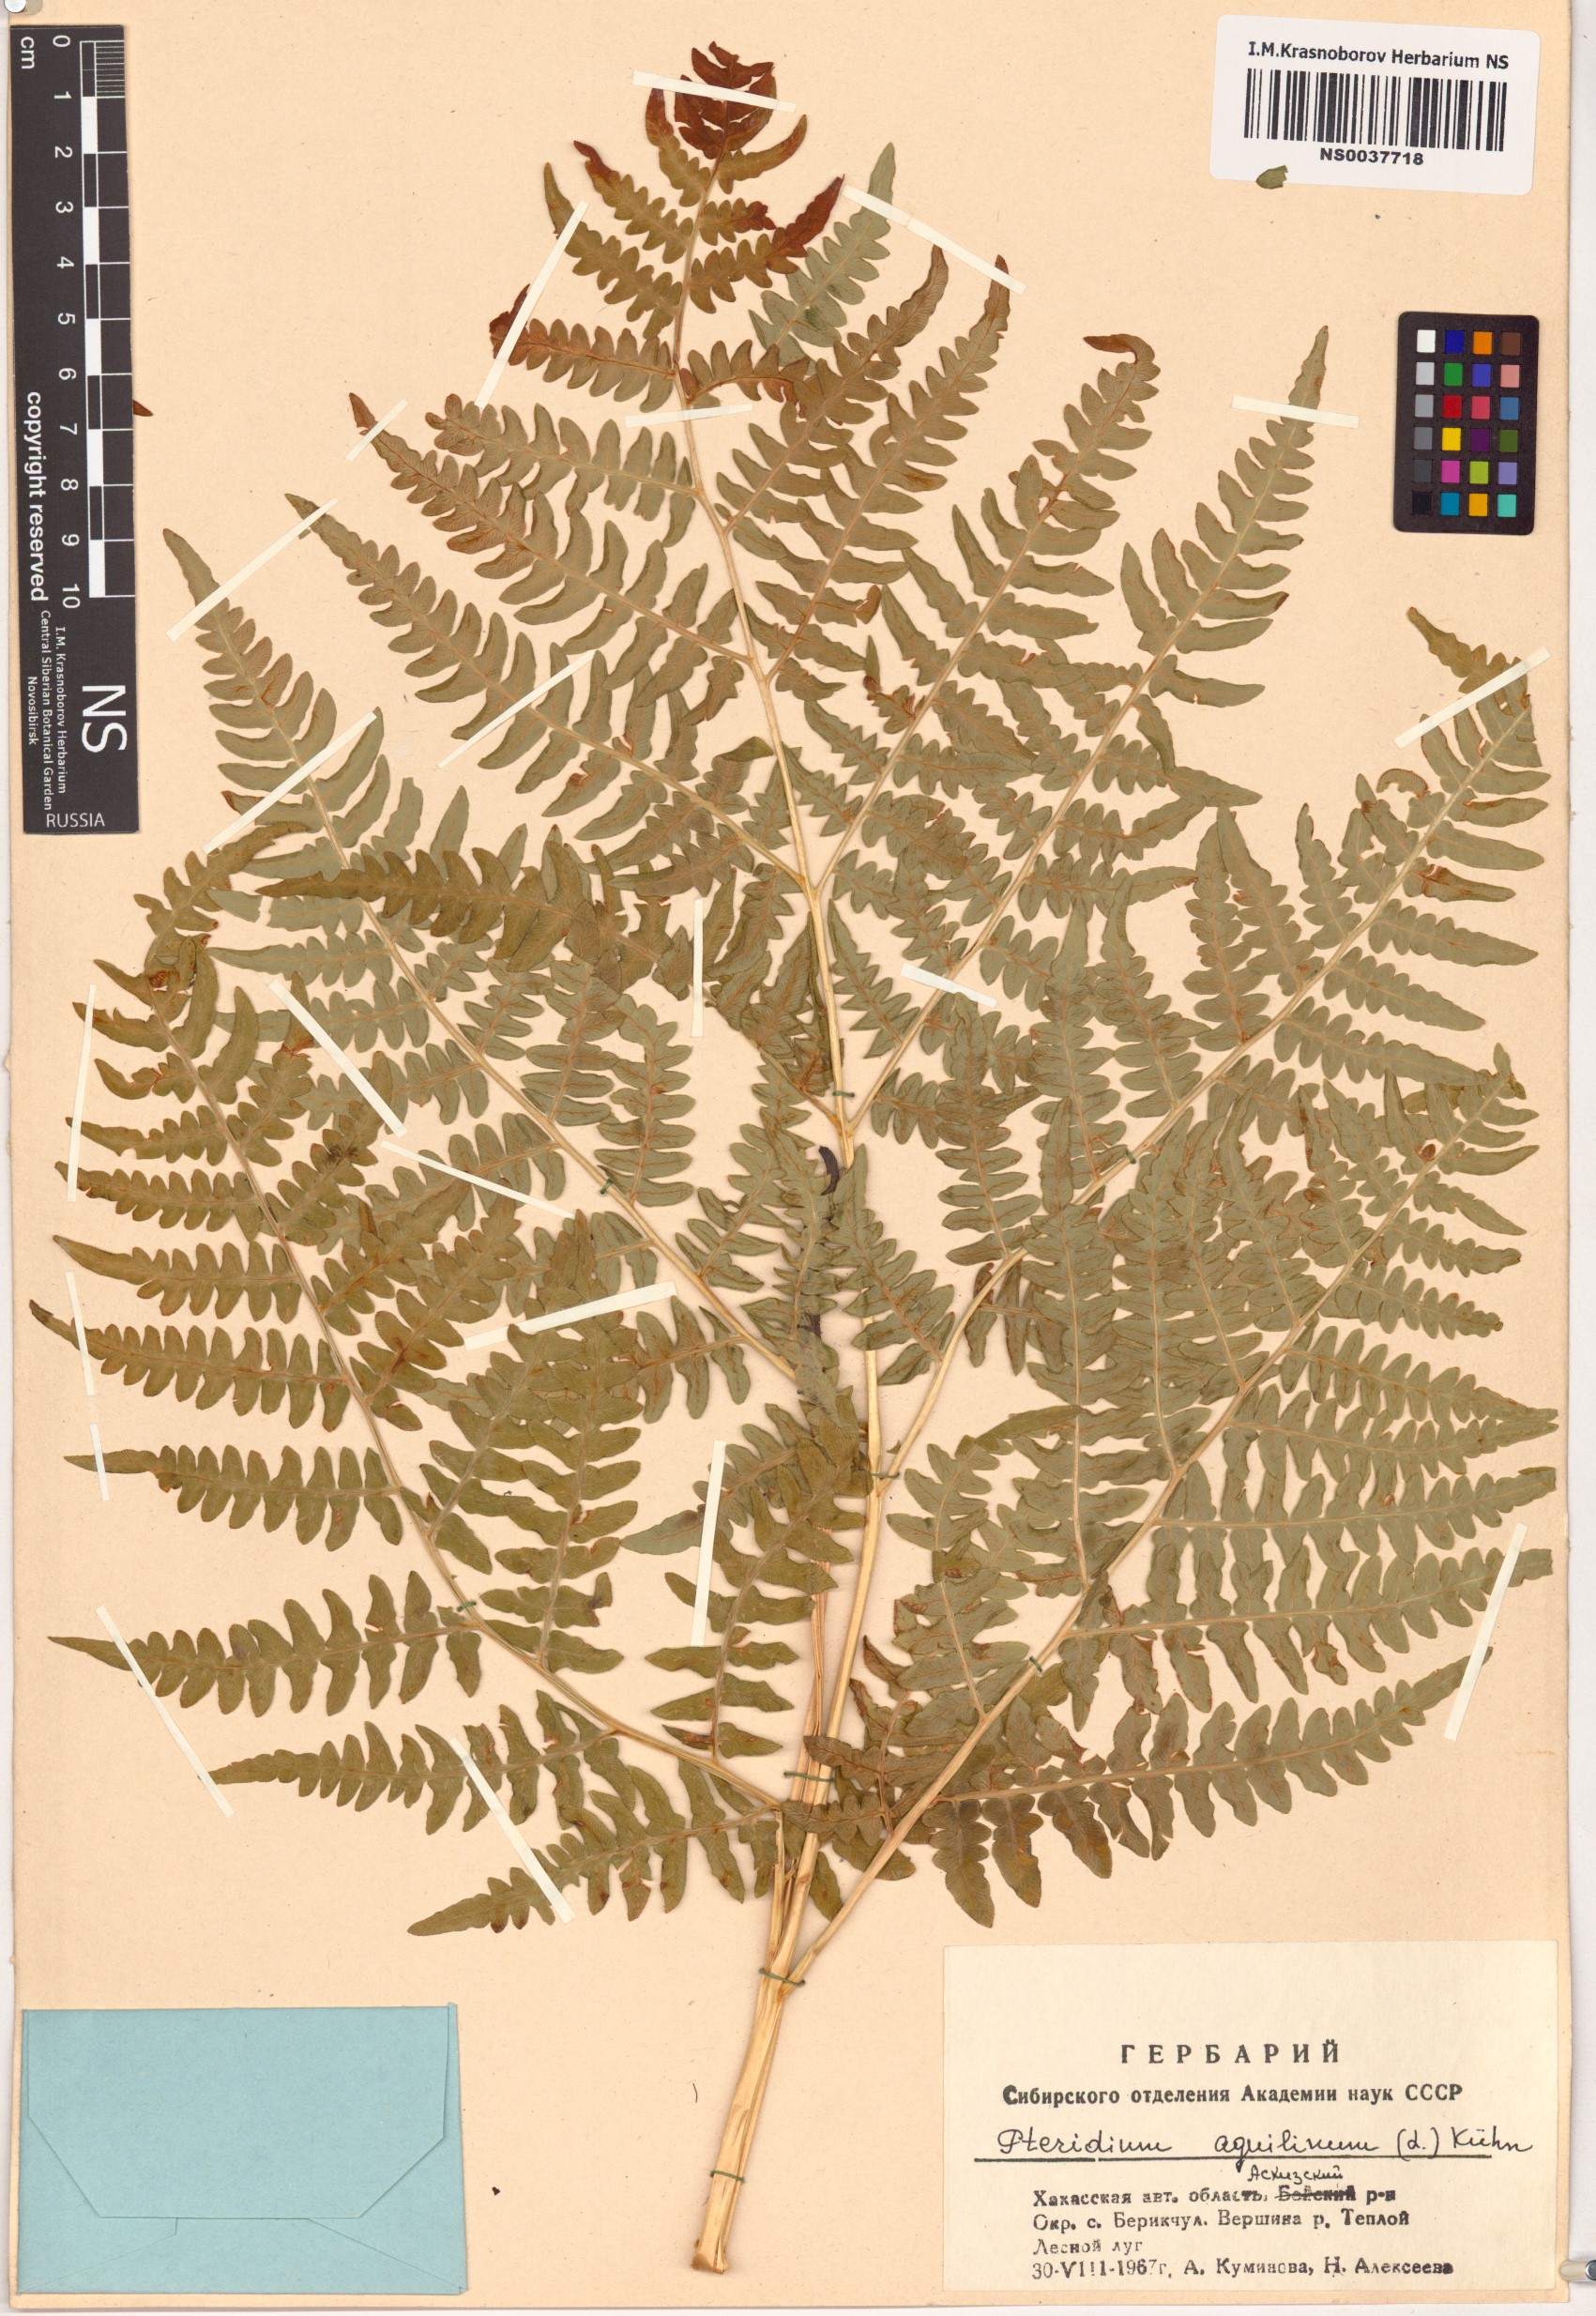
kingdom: Plantae
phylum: Tracheophyta
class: Polypodiopsida
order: Polypodiales
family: Dennstaedtiaceae
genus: Pteridium
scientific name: Pteridium aquilinum
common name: Bracken
